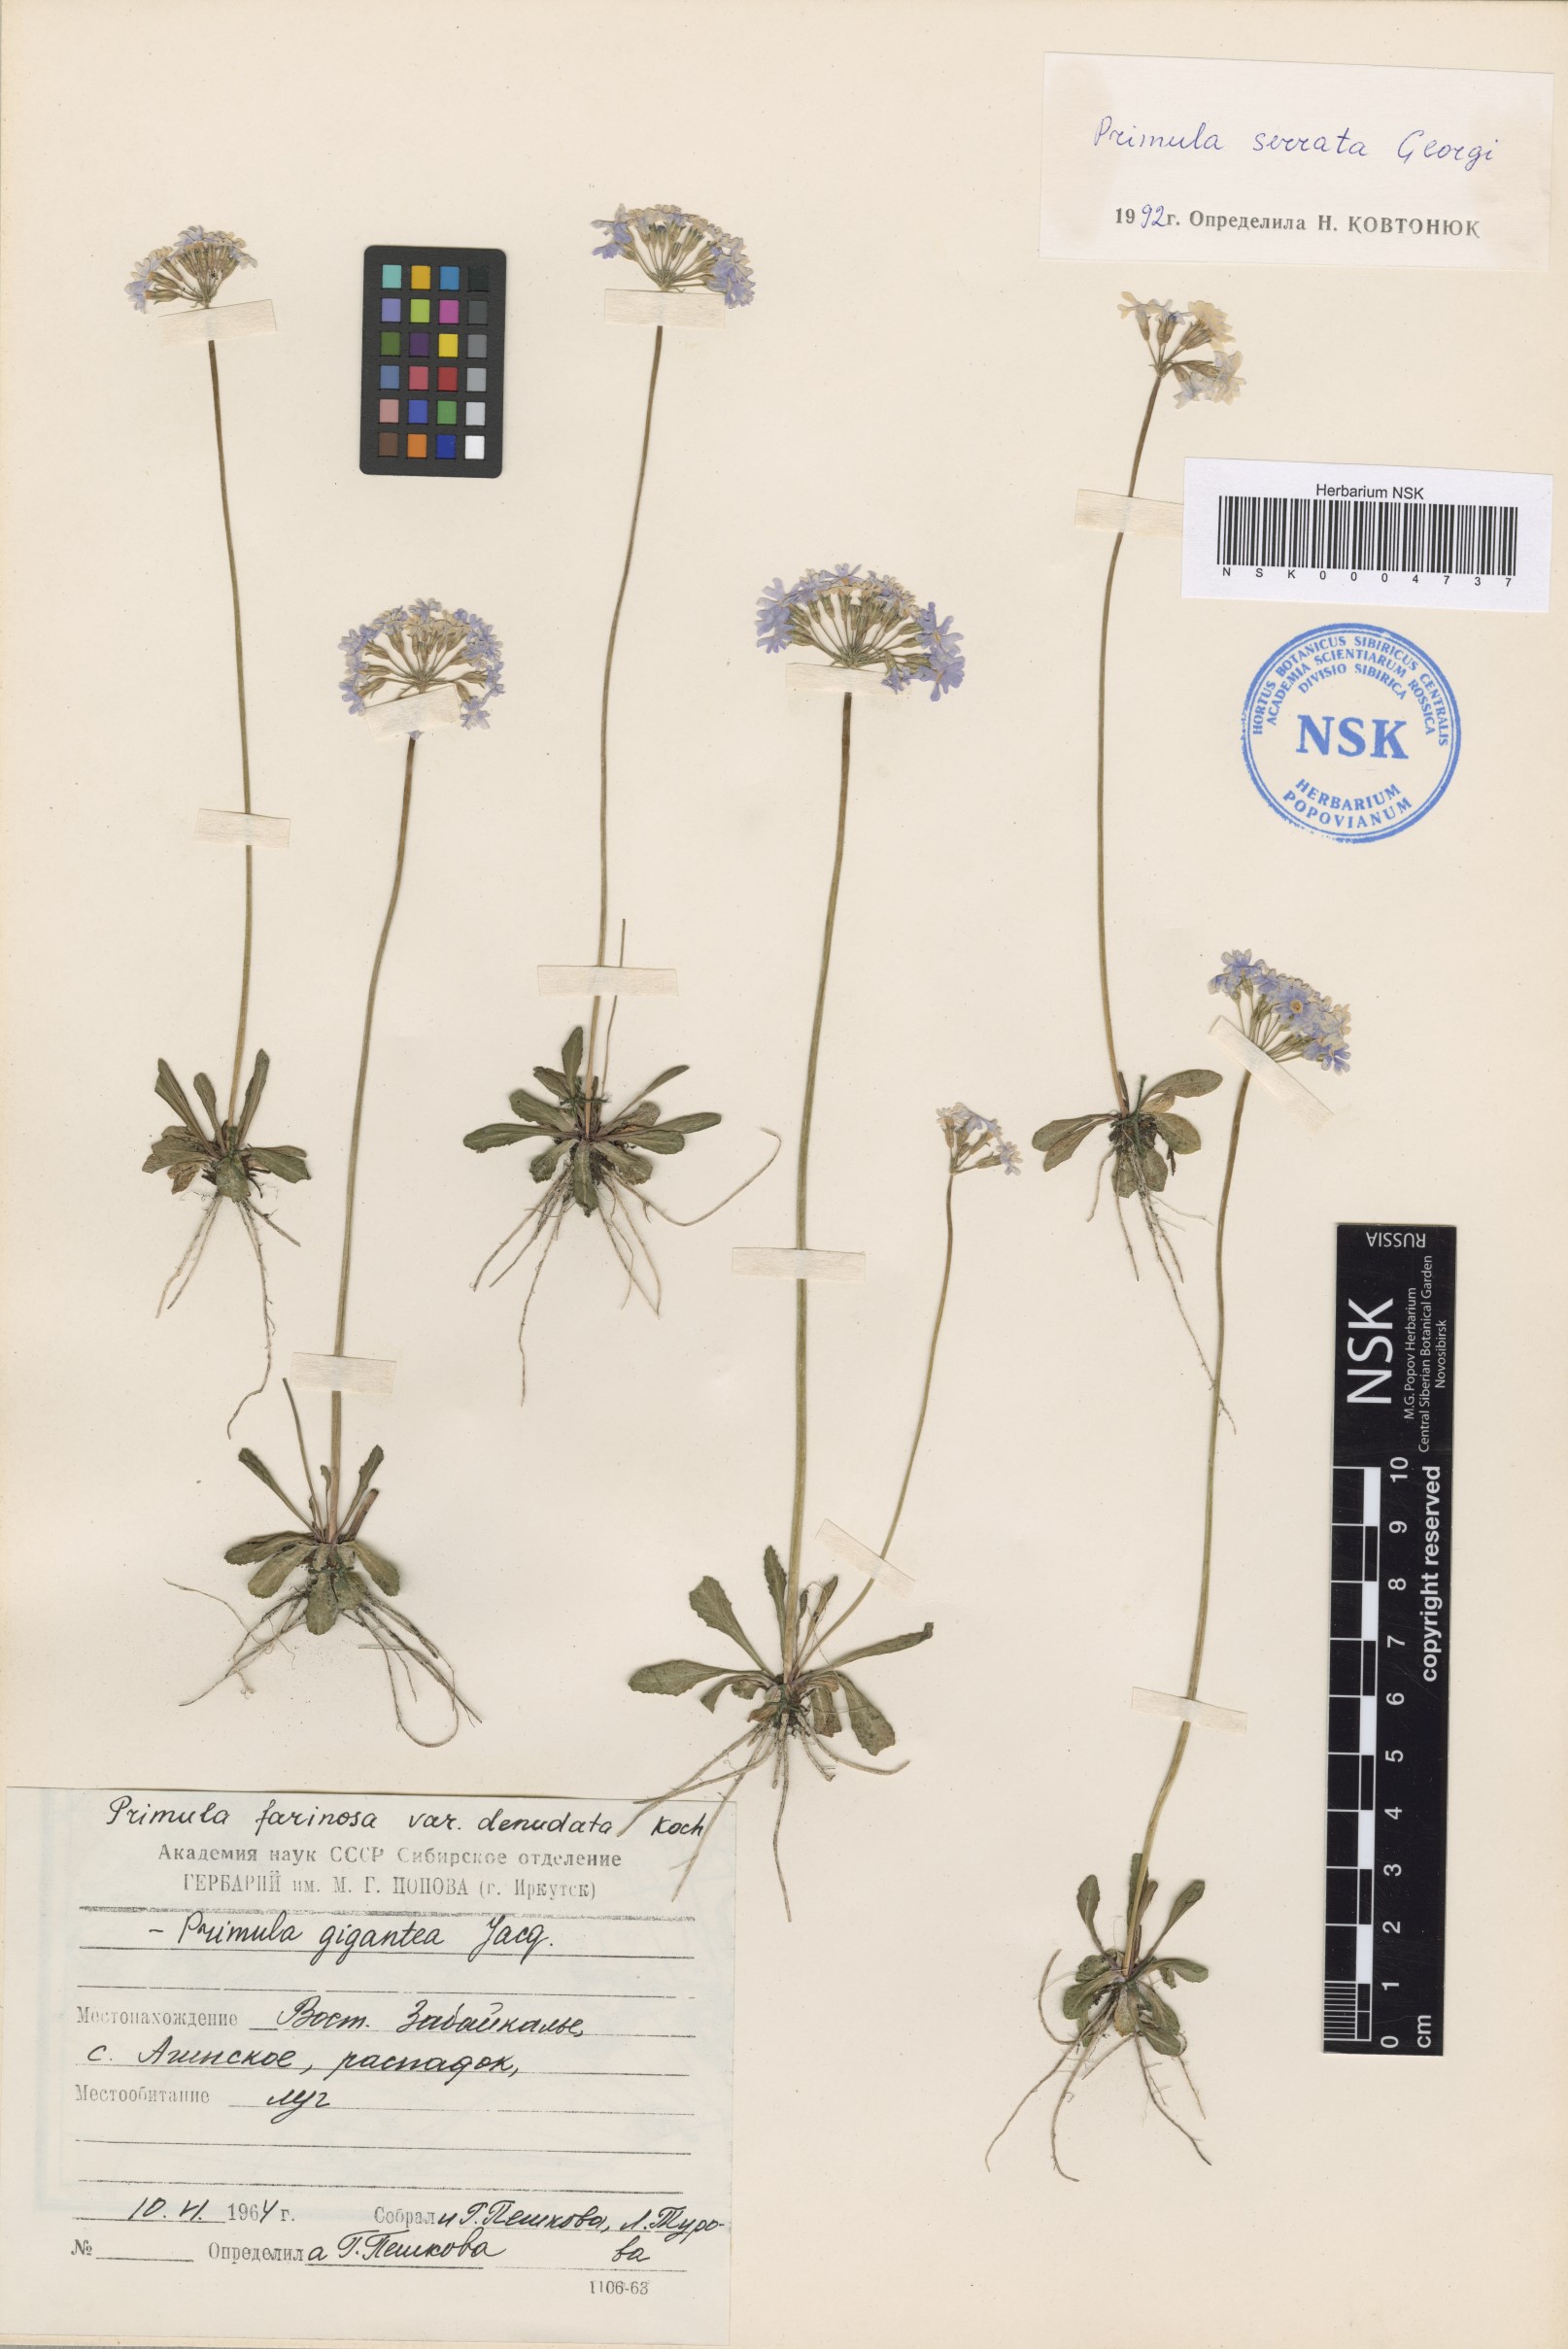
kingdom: Plantae
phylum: Tracheophyta
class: Magnoliopsida
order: Ericales
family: Primulaceae
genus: Primula
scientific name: Primula serrata
